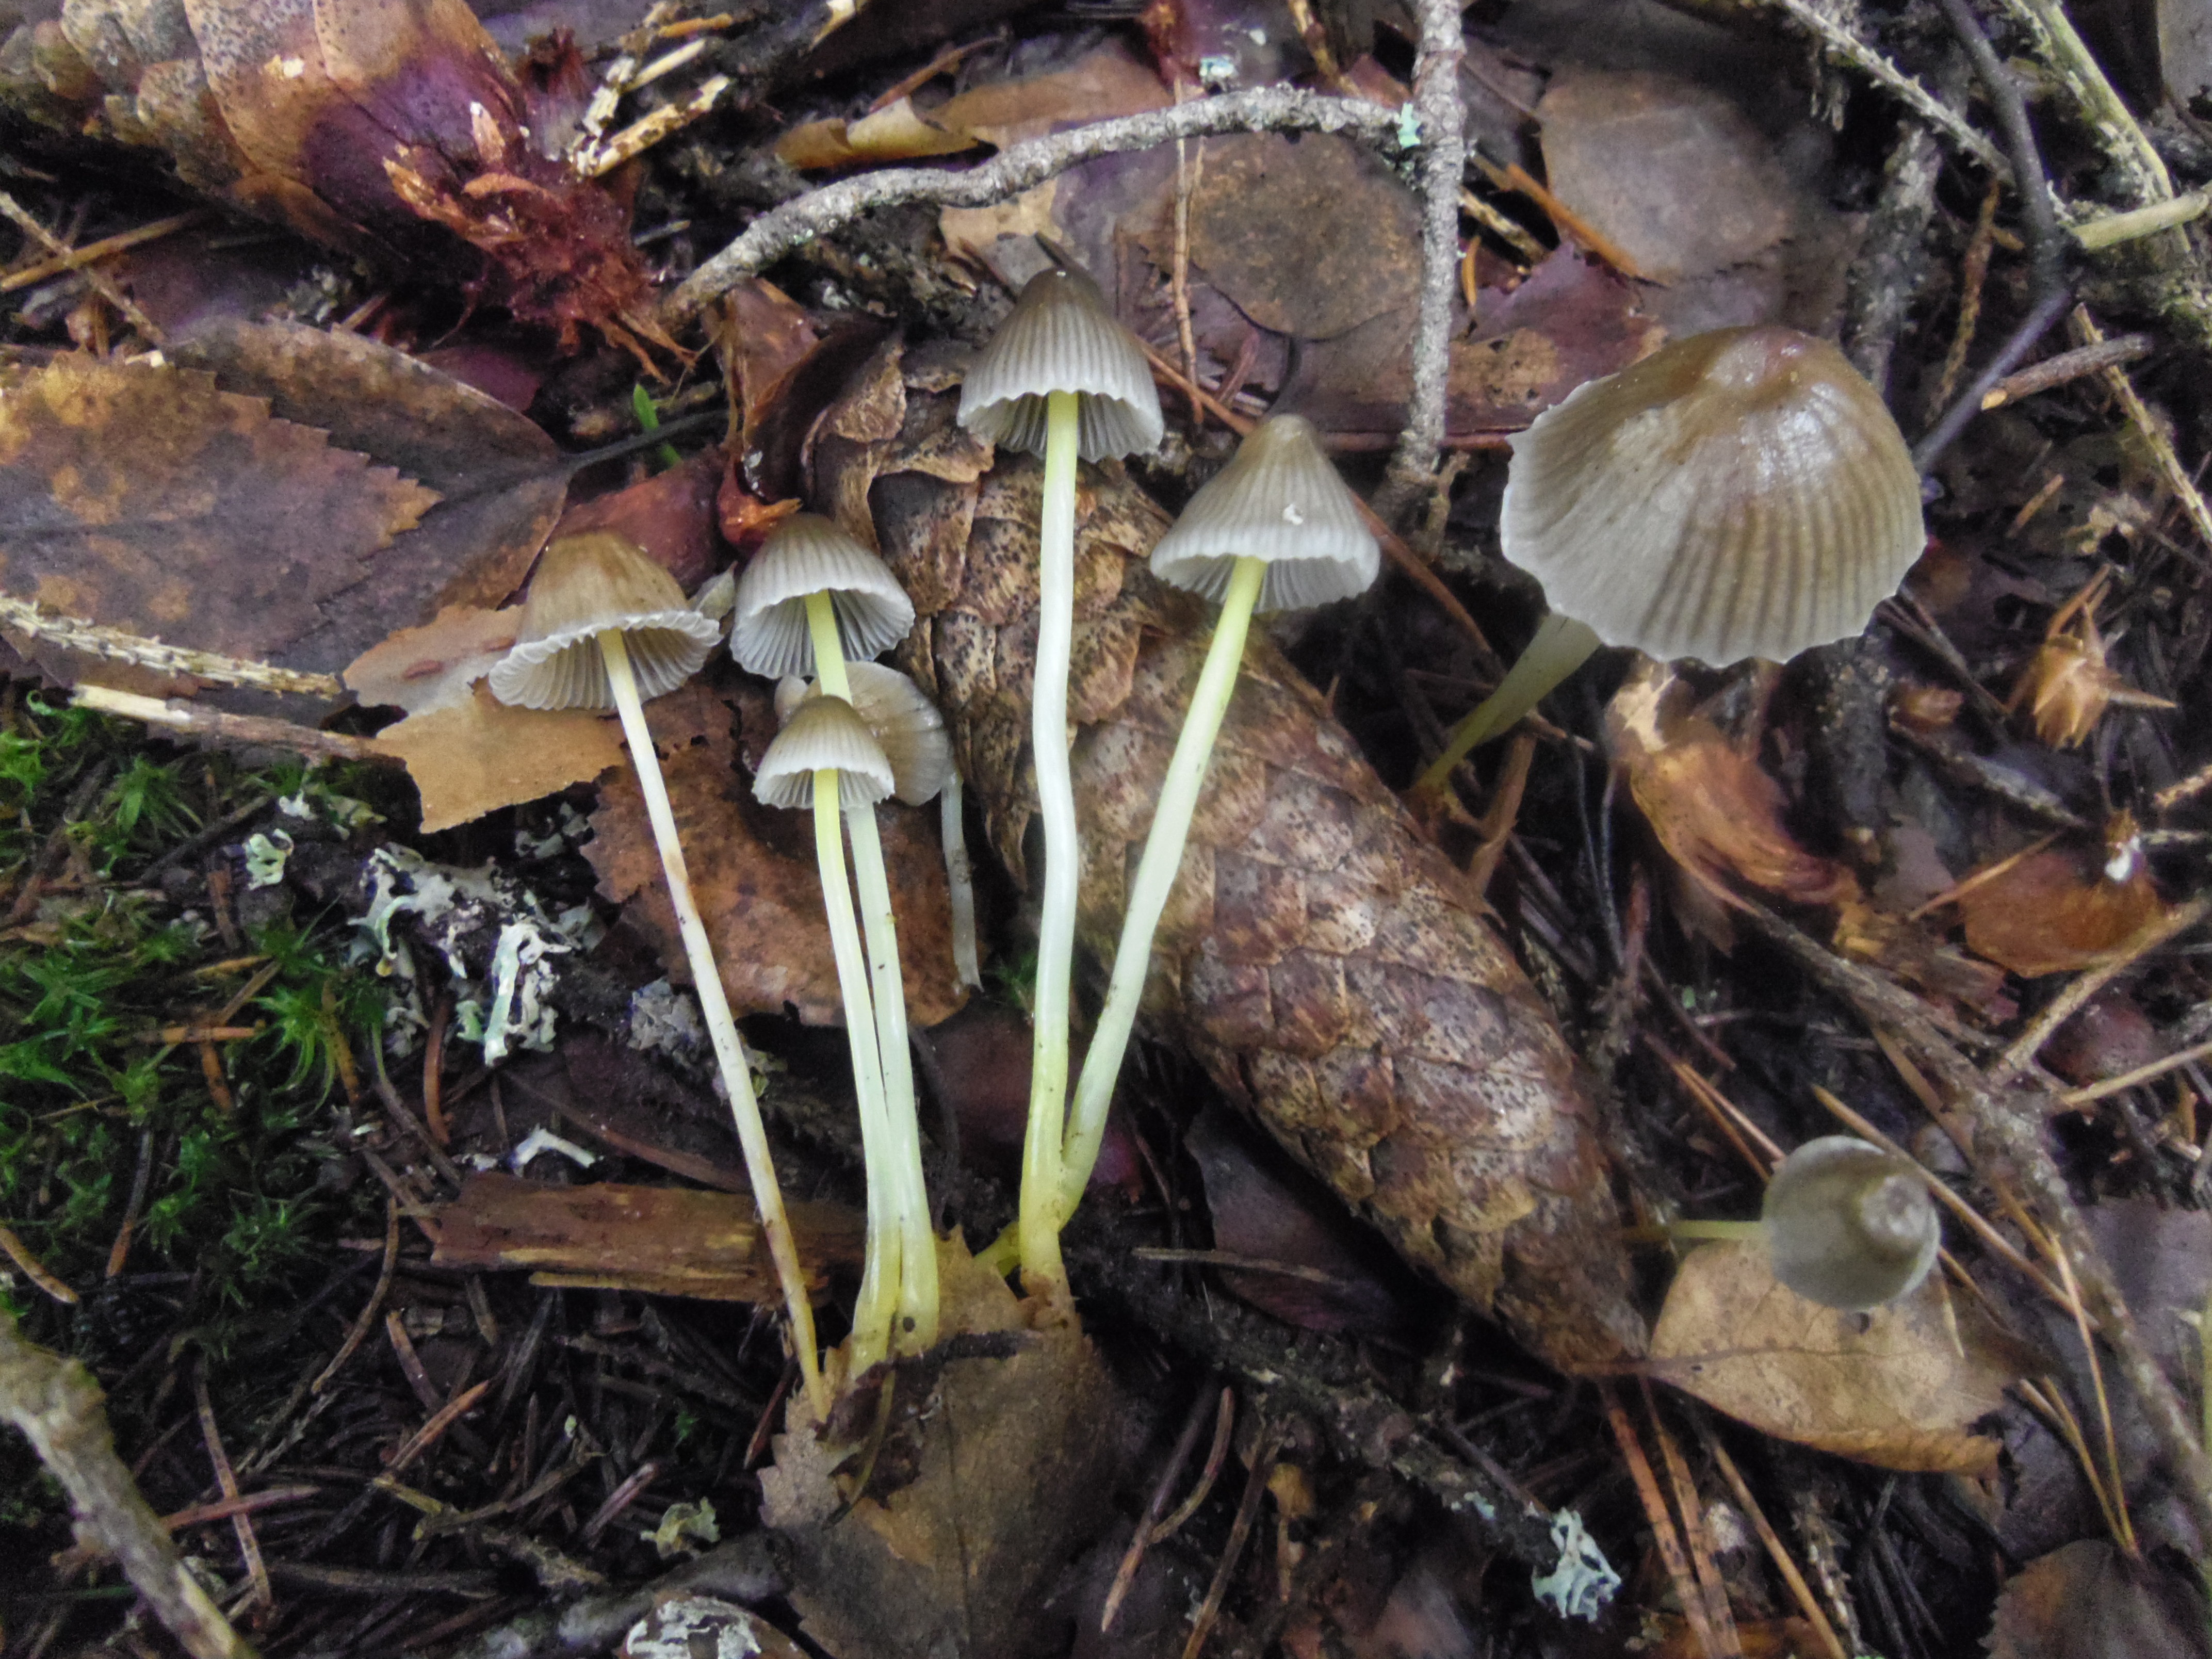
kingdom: Fungi
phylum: Basidiomycota
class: Agaricomycetes
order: Agaricales
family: Mycenaceae
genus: Mycena
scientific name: Mycena epipterygia
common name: Yellowleg bonnet
